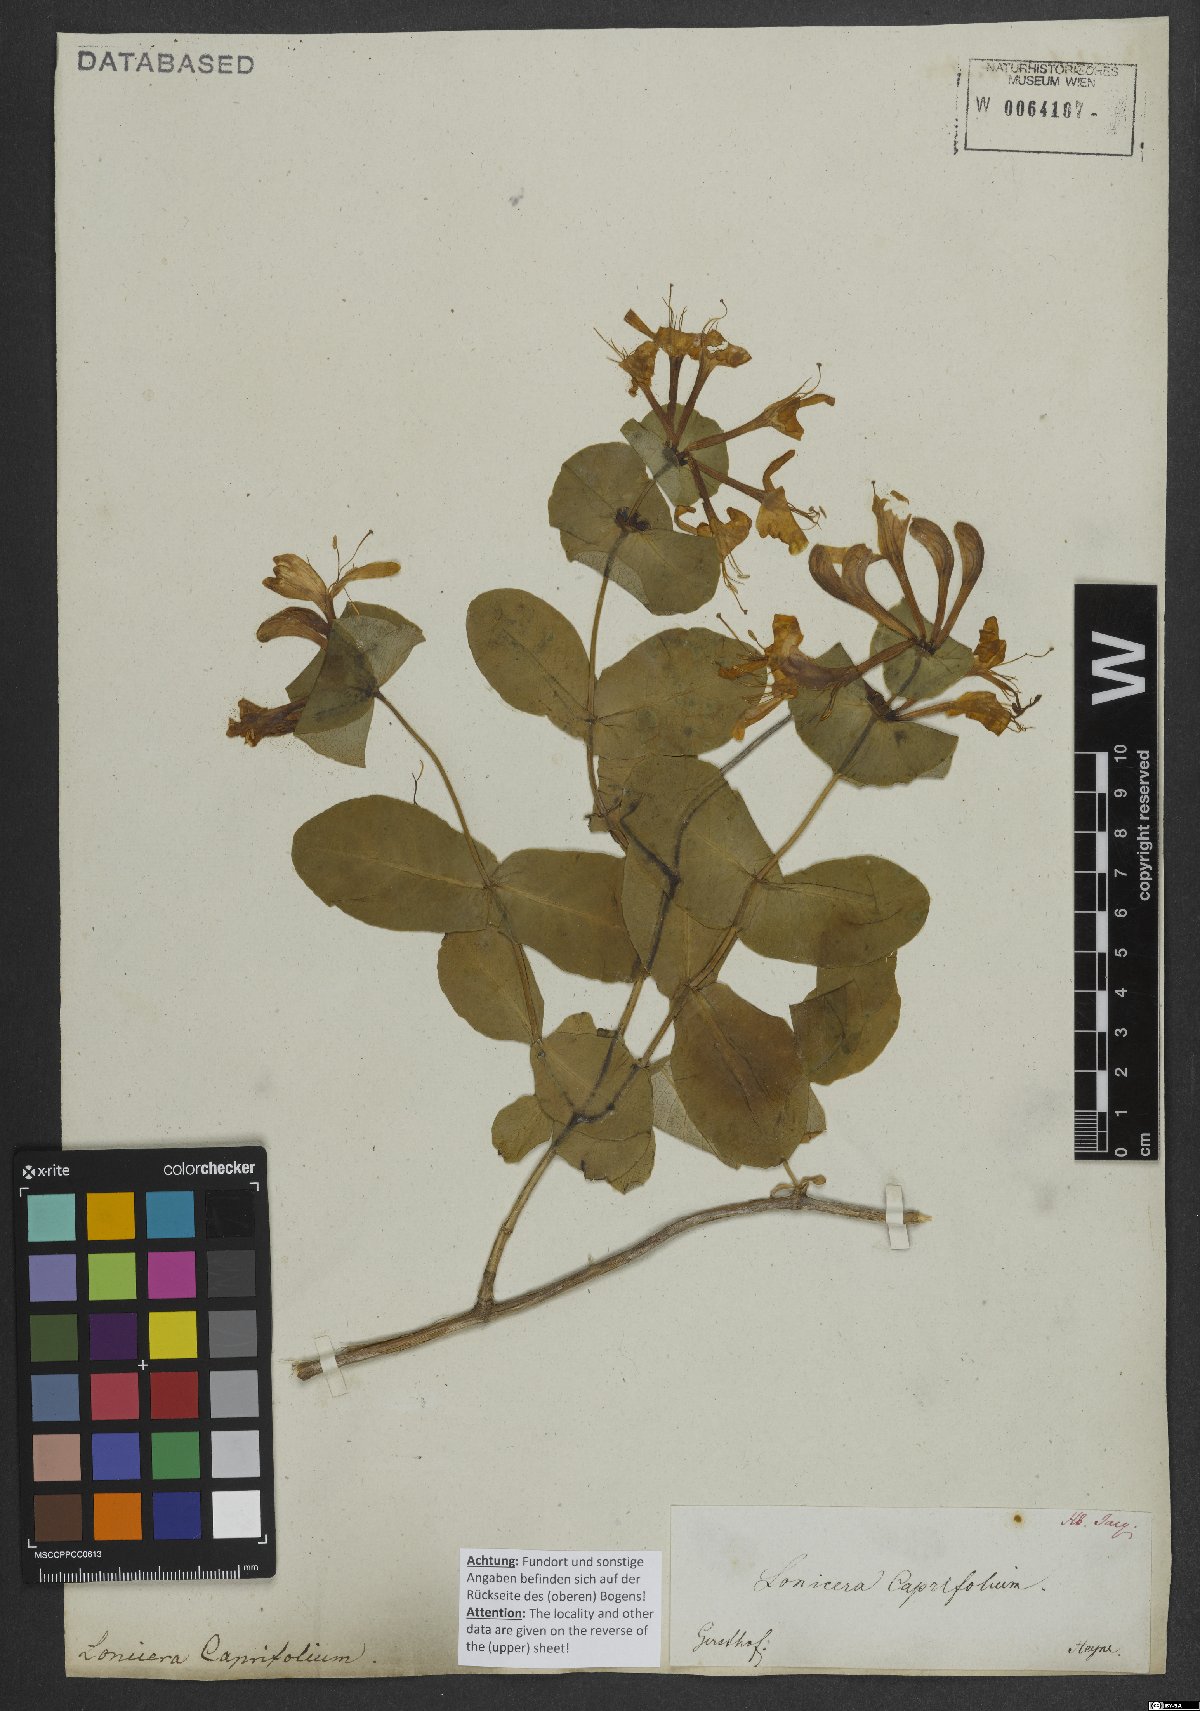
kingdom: Plantae
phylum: Tracheophyta
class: Magnoliopsida
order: Dipsacales
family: Caprifoliaceae
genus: Lonicera
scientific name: Lonicera caprifolium
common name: Perfoliate honeysuckle
